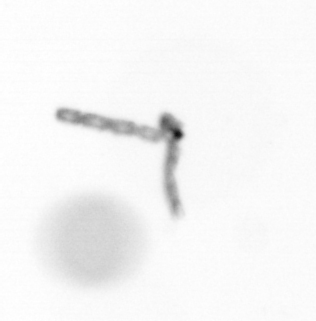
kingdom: Chromista
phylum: Ochrophyta
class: Bacillariophyceae
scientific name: Bacillariophyceae
